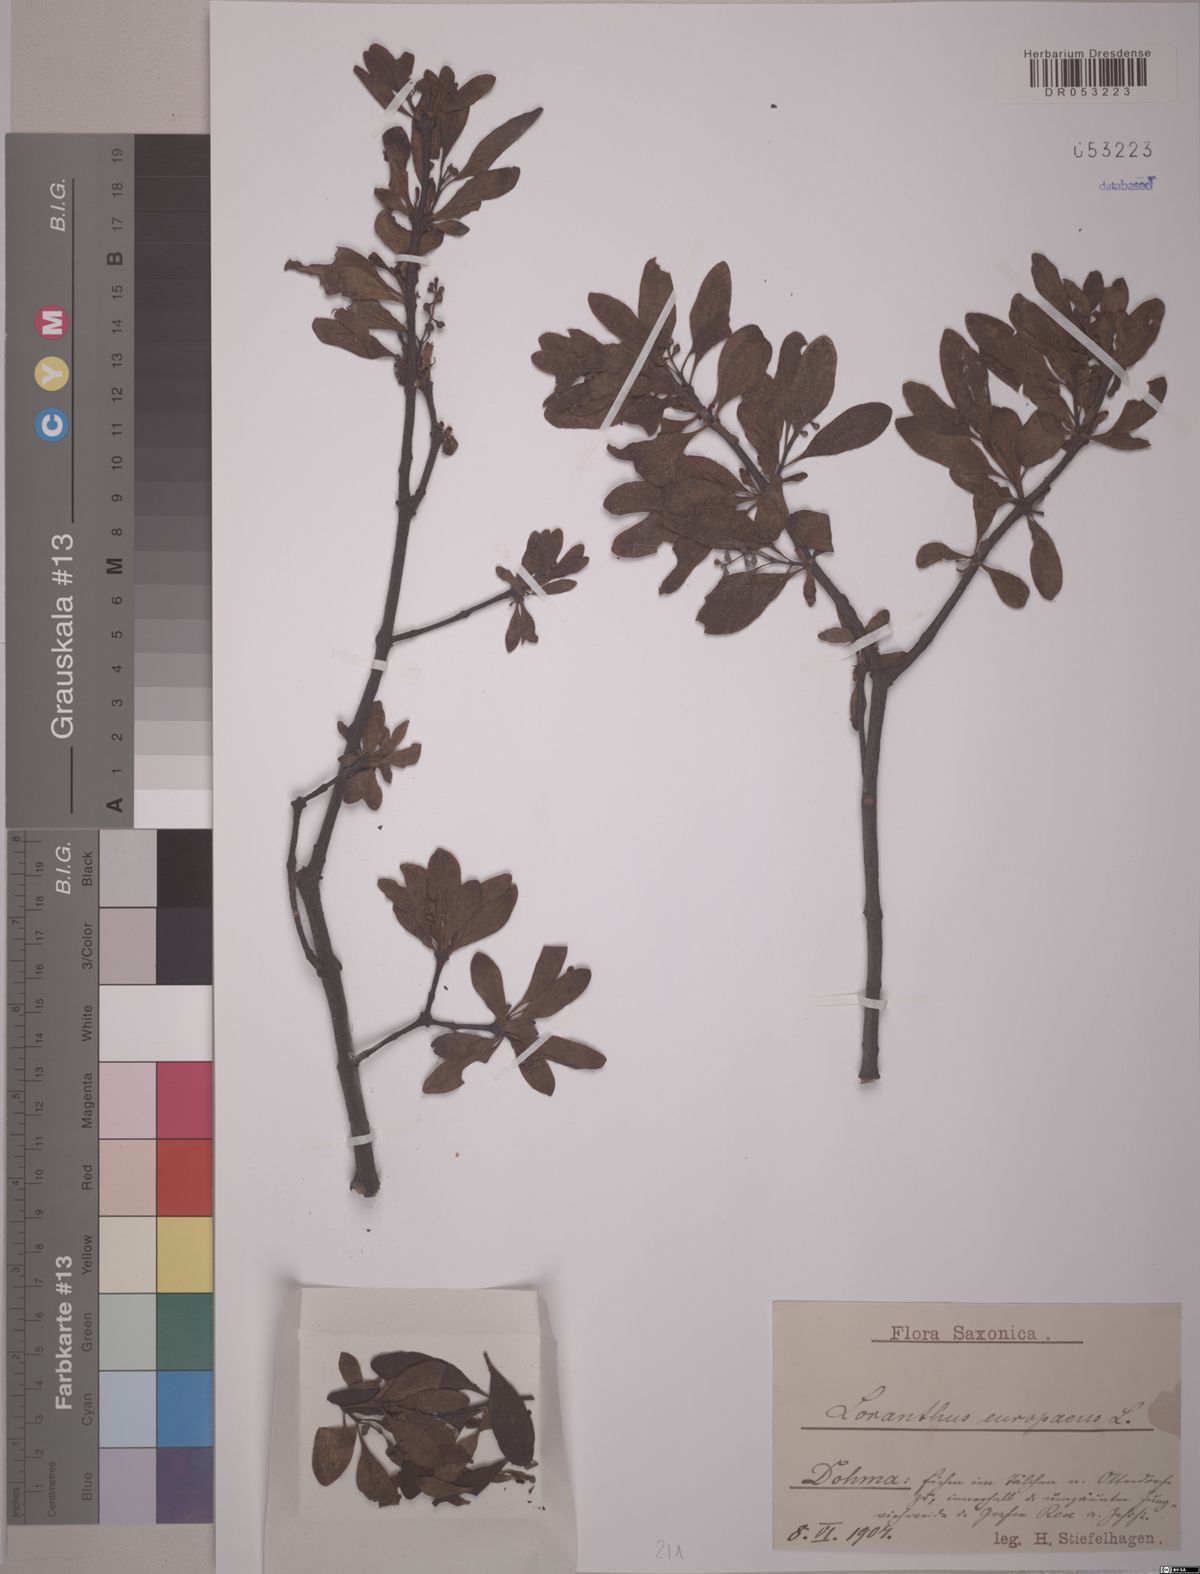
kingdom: Plantae
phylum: Tracheophyta
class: Magnoliopsida
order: Santalales
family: Loranthaceae
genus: Loranthus
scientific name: Loranthus europaeus
